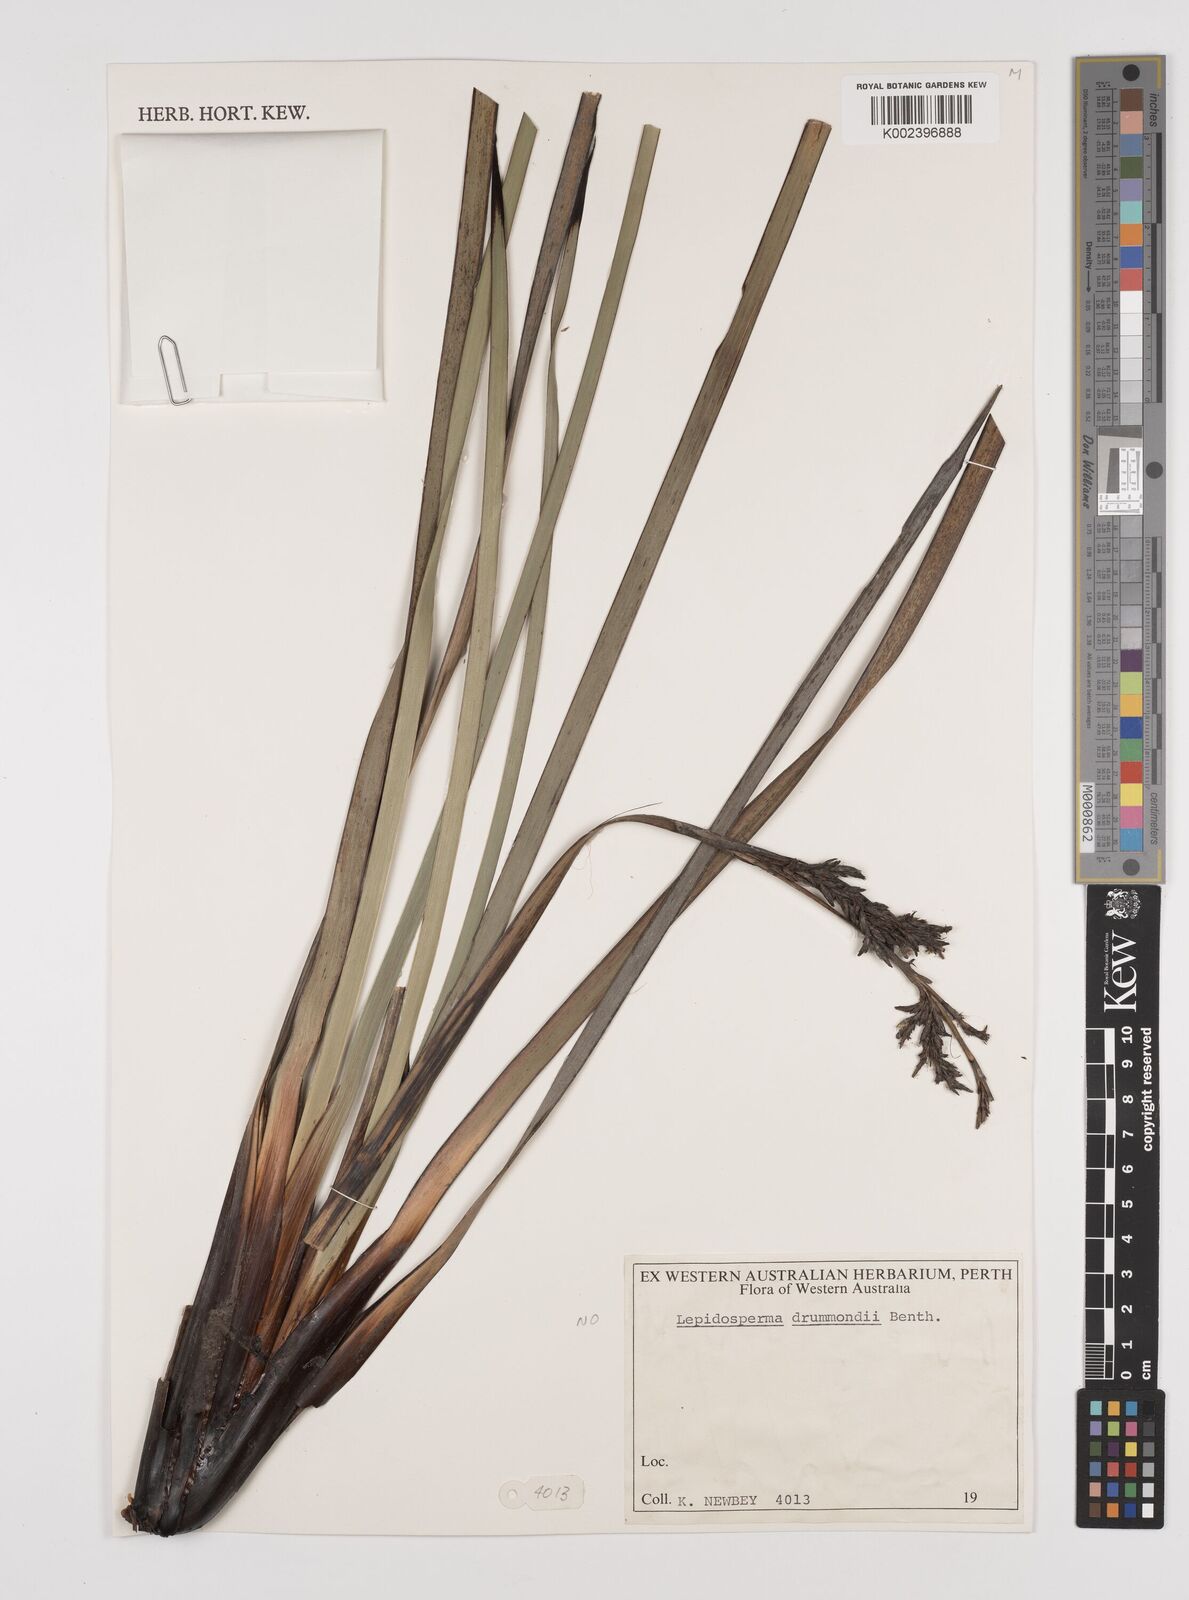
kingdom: Plantae
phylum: Tracheophyta
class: Liliopsida
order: Poales
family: Cyperaceae
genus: Lepidosperma
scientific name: Lepidosperma drummondii
